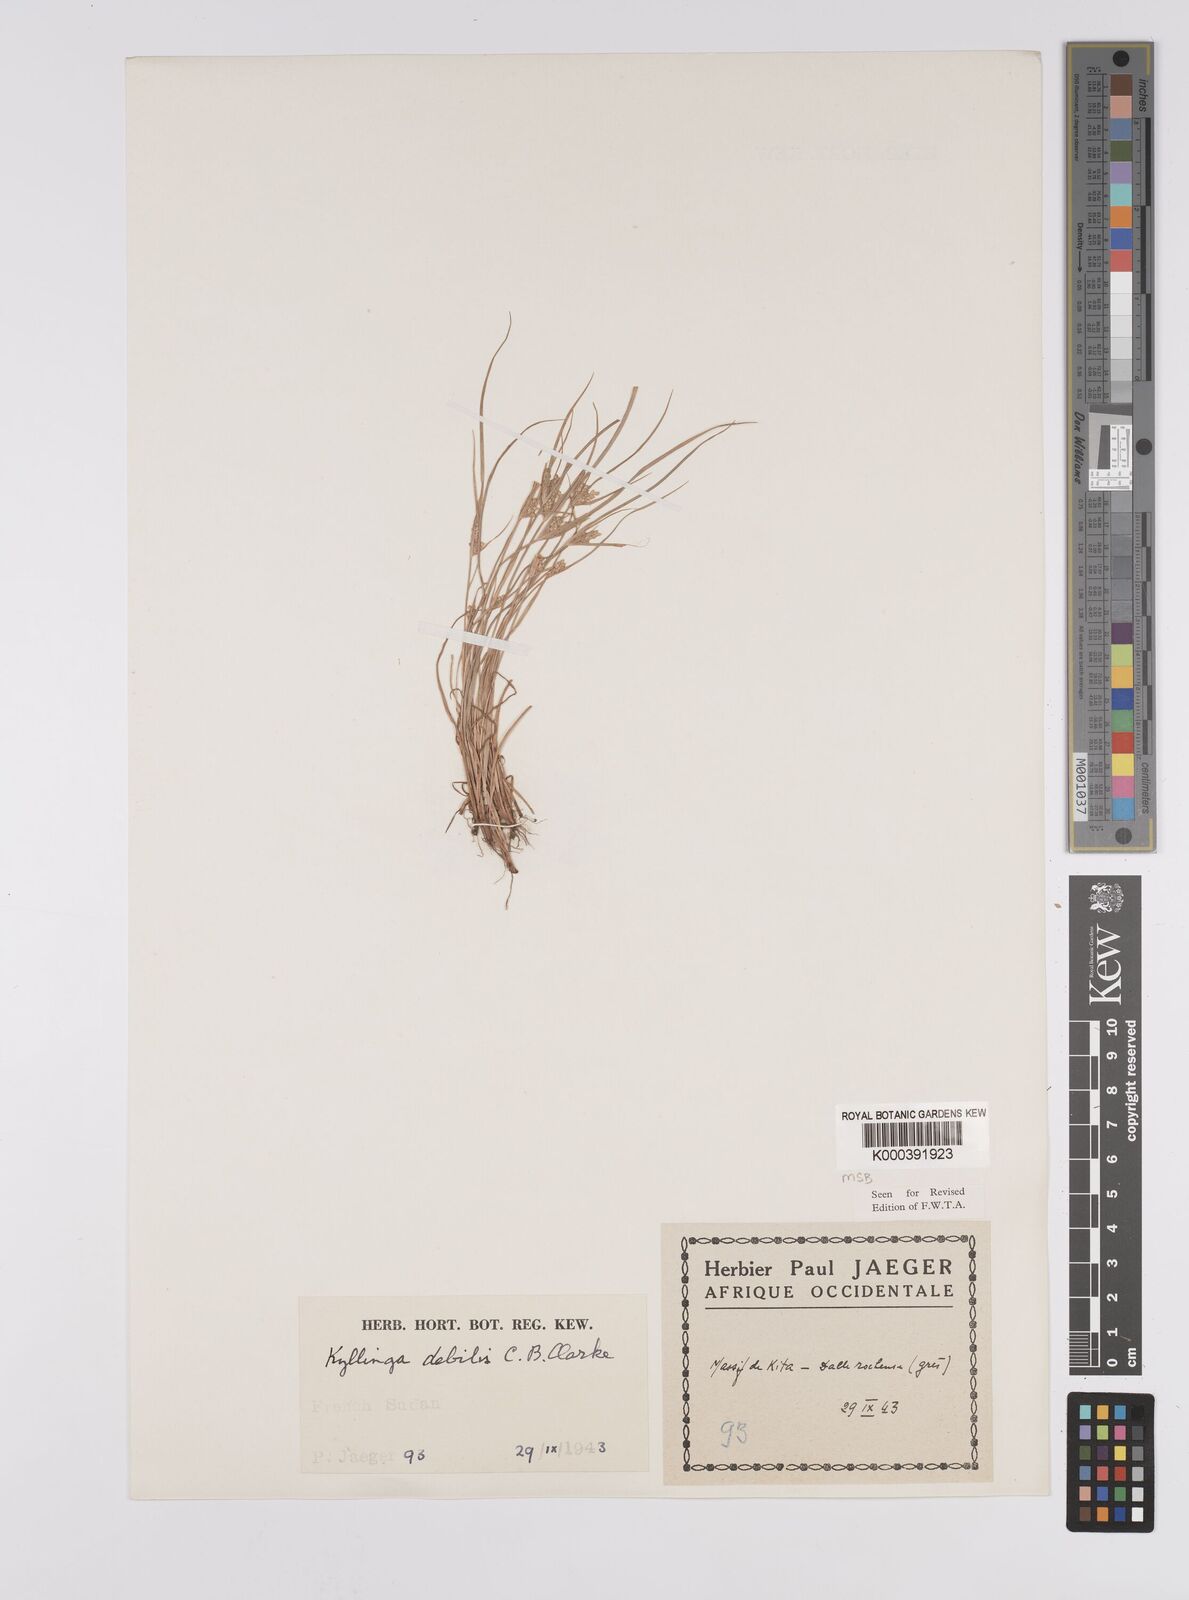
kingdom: Plantae
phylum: Tracheophyta
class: Liliopsida
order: Poales
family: Cyperaceae
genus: Cyperus
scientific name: Cyperus leptorhachis
